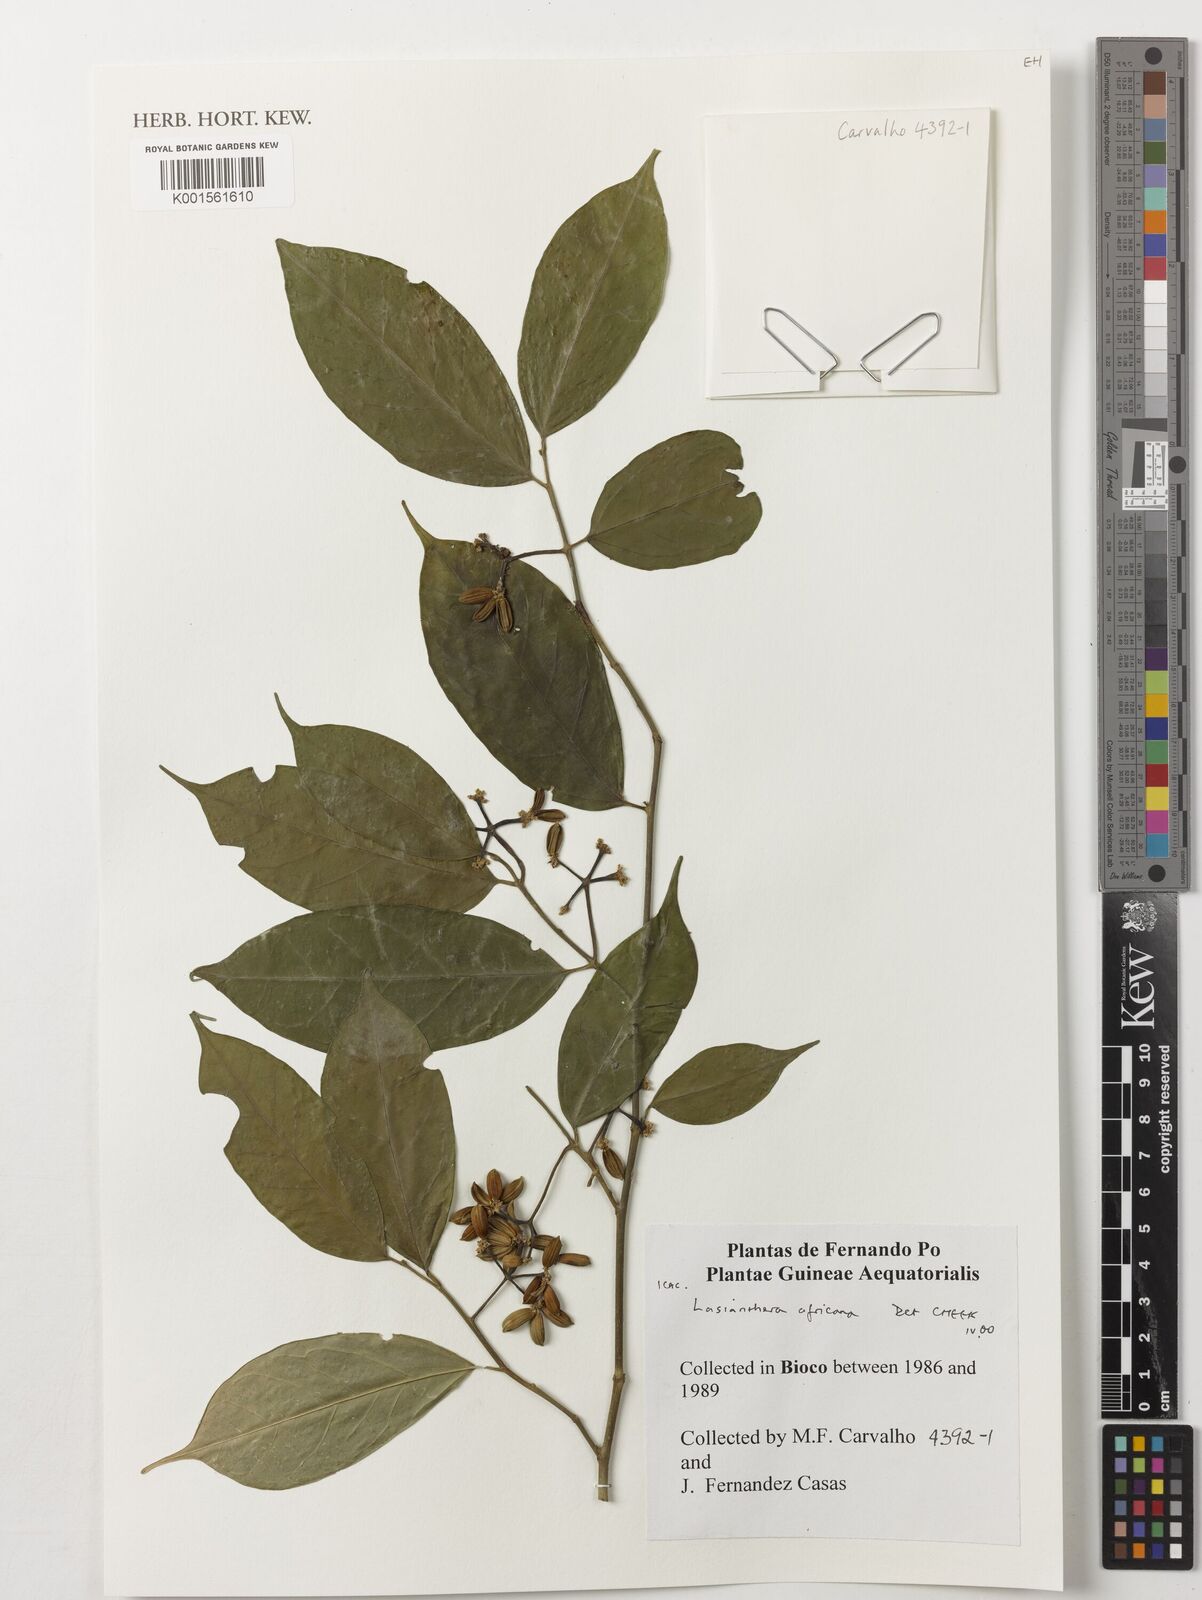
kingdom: Plantae
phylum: Tracheophyta
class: Magnoliopsida
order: Cardiopteridales
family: Stemonuraceae
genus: Lasianthera
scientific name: Lasianthera africana
